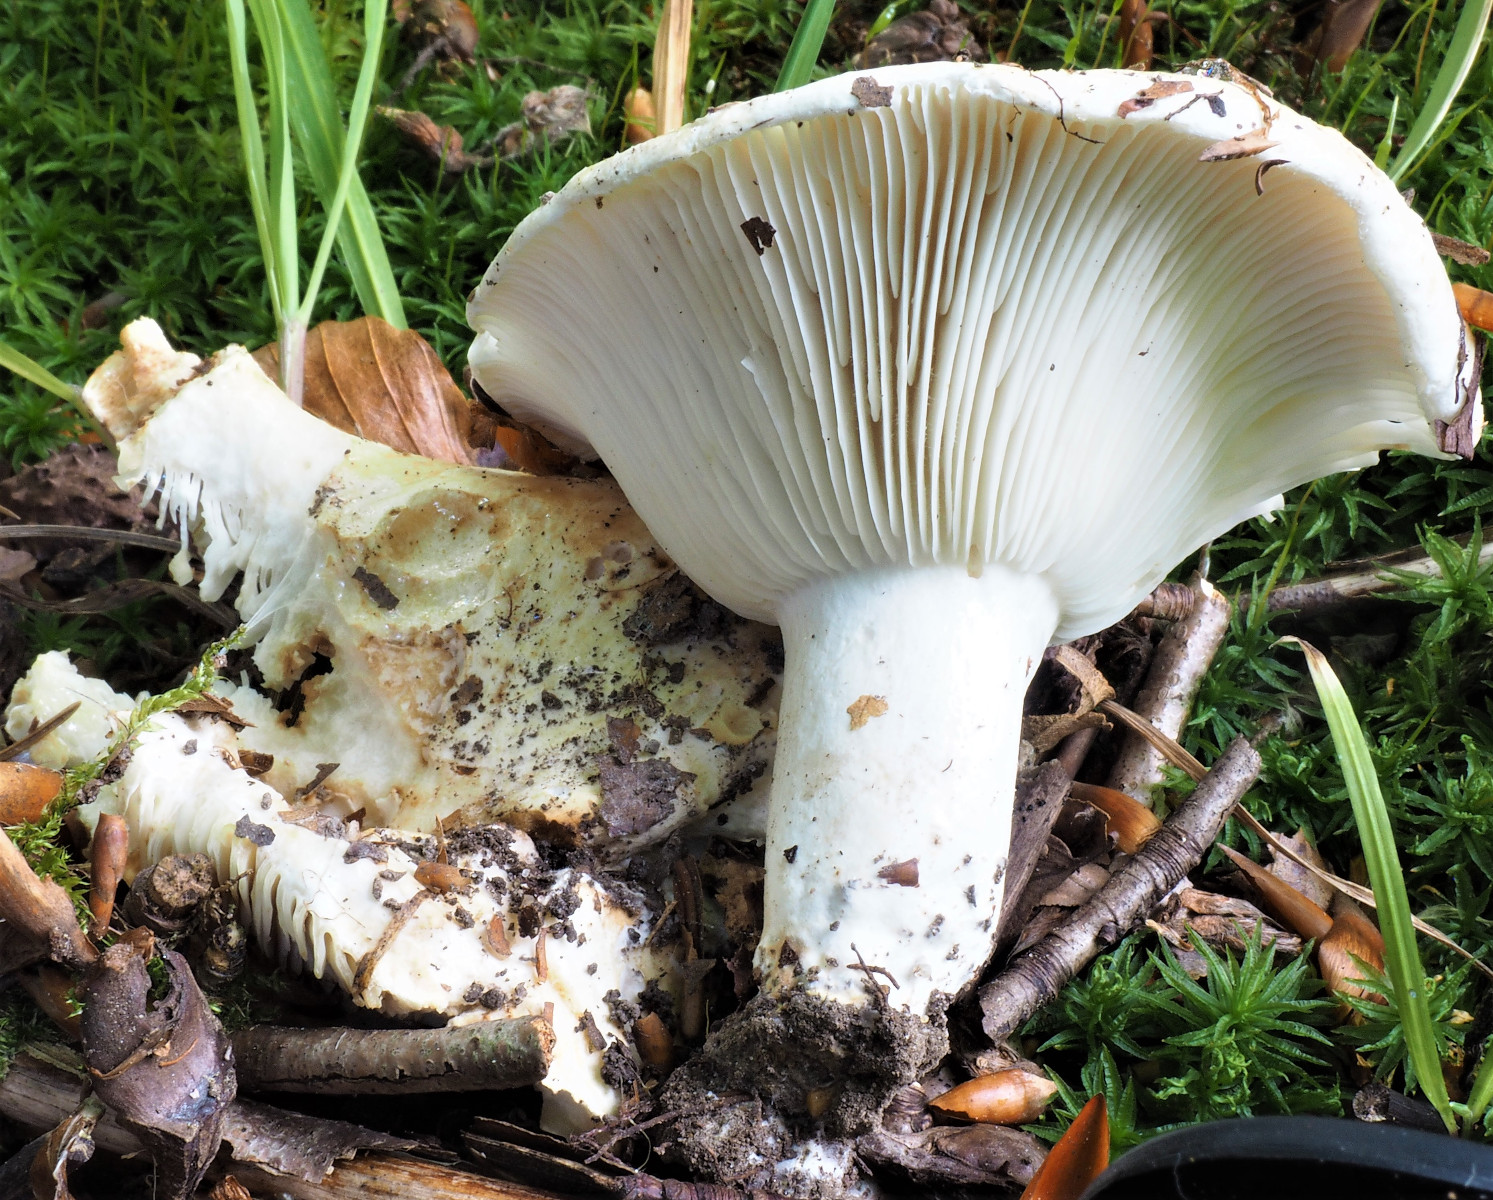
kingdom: Fungi
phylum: Basidiomycota
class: Agaricomycetes
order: Russulales
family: Russulaceae
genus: Russula
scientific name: Russula chloroides
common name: grønhalset tragt-skørhat
